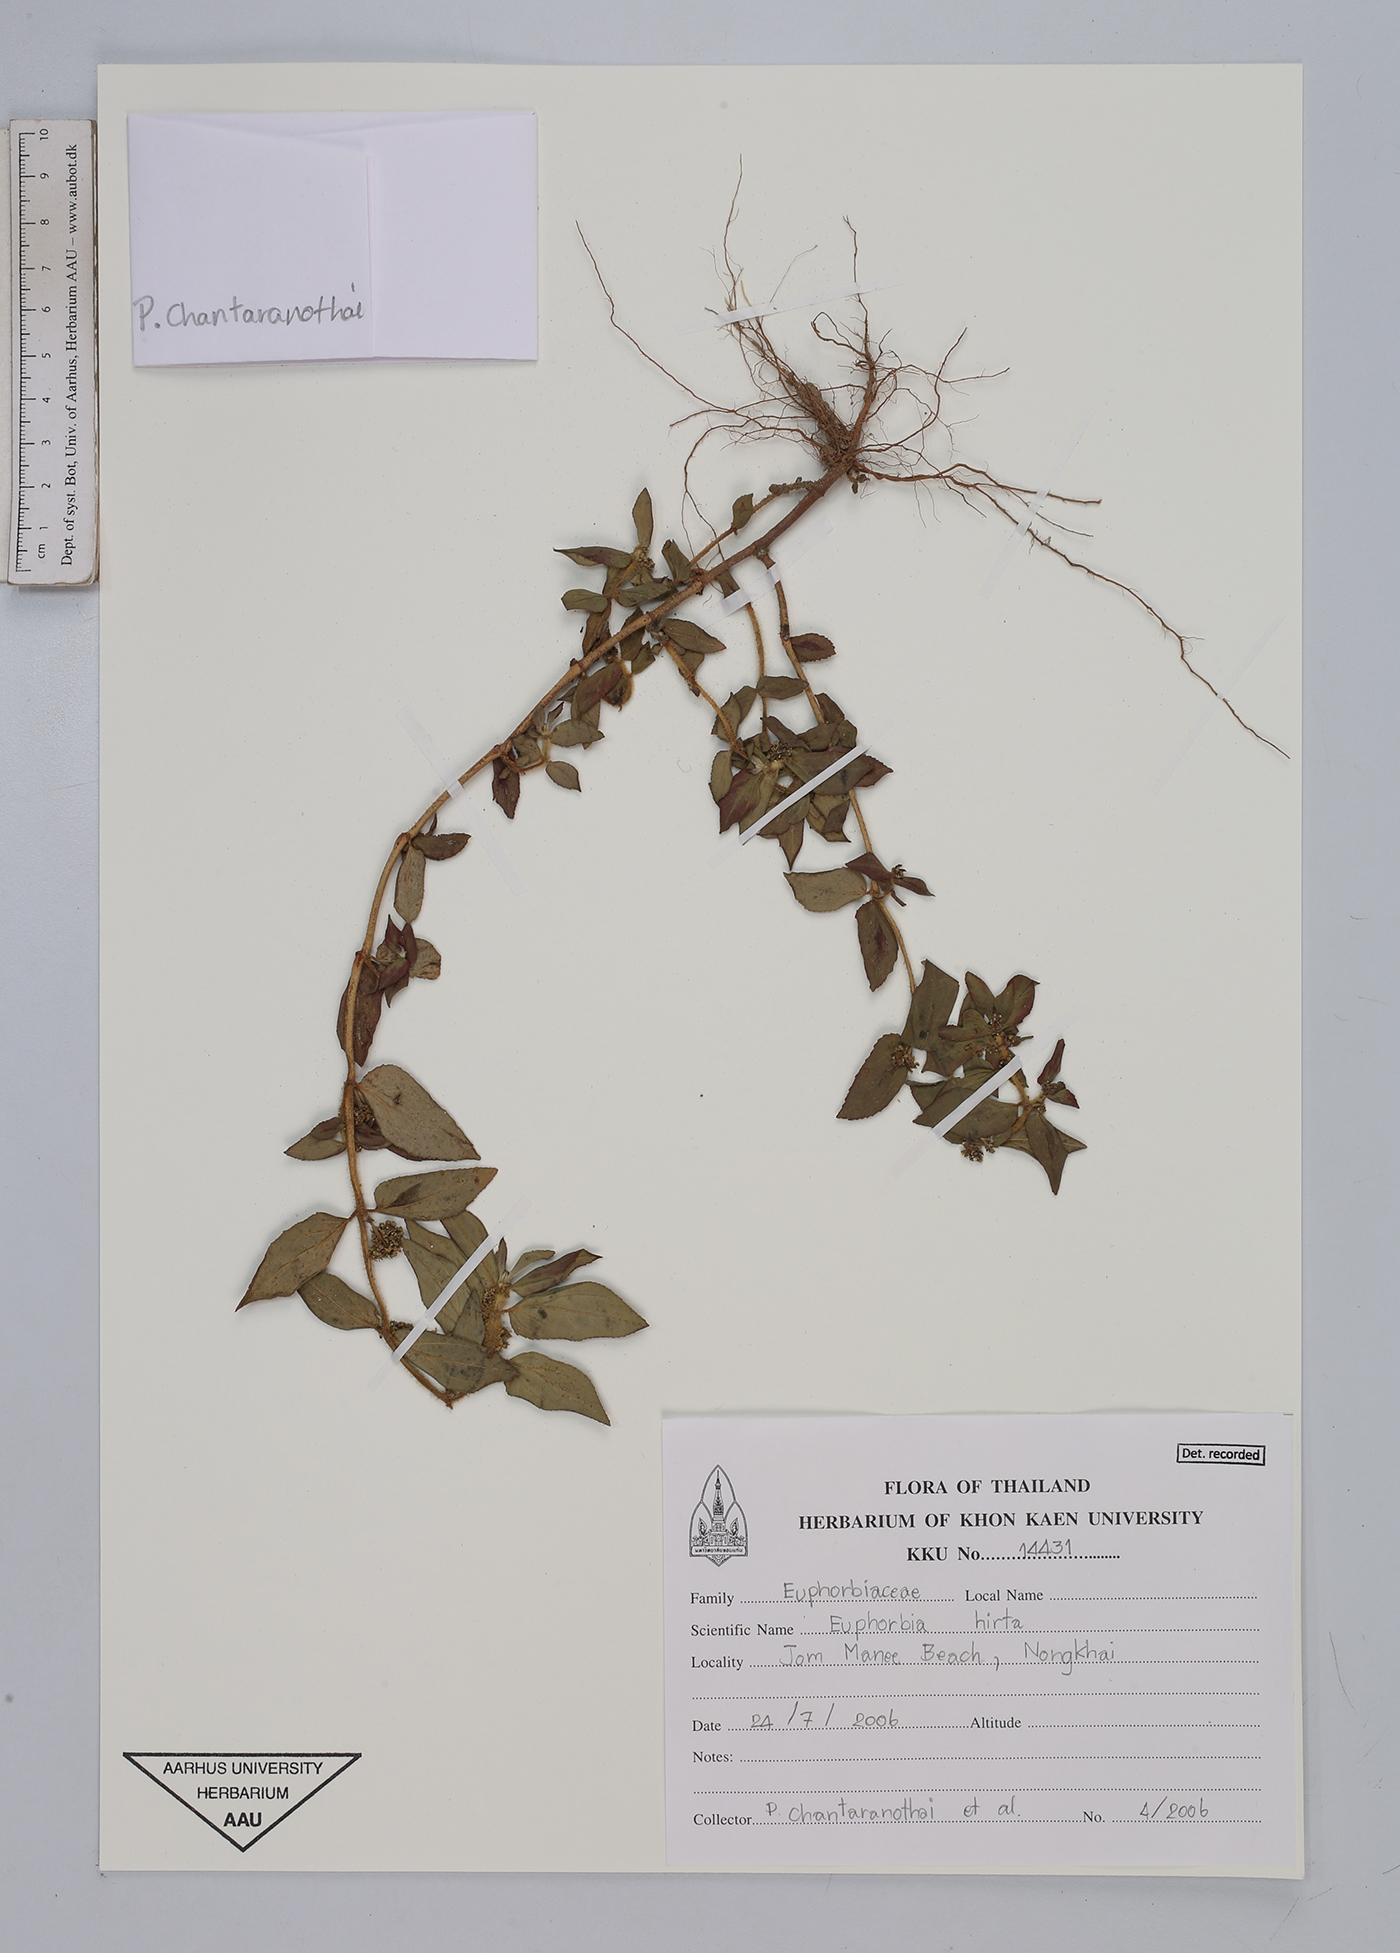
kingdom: Plantae
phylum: Tracheophyta
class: Magnoliopsida
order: Malpighiales
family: Euphorbiaceae
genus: Euphorbia
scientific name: Euphorbia hirta
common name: Pillpod sandmat
